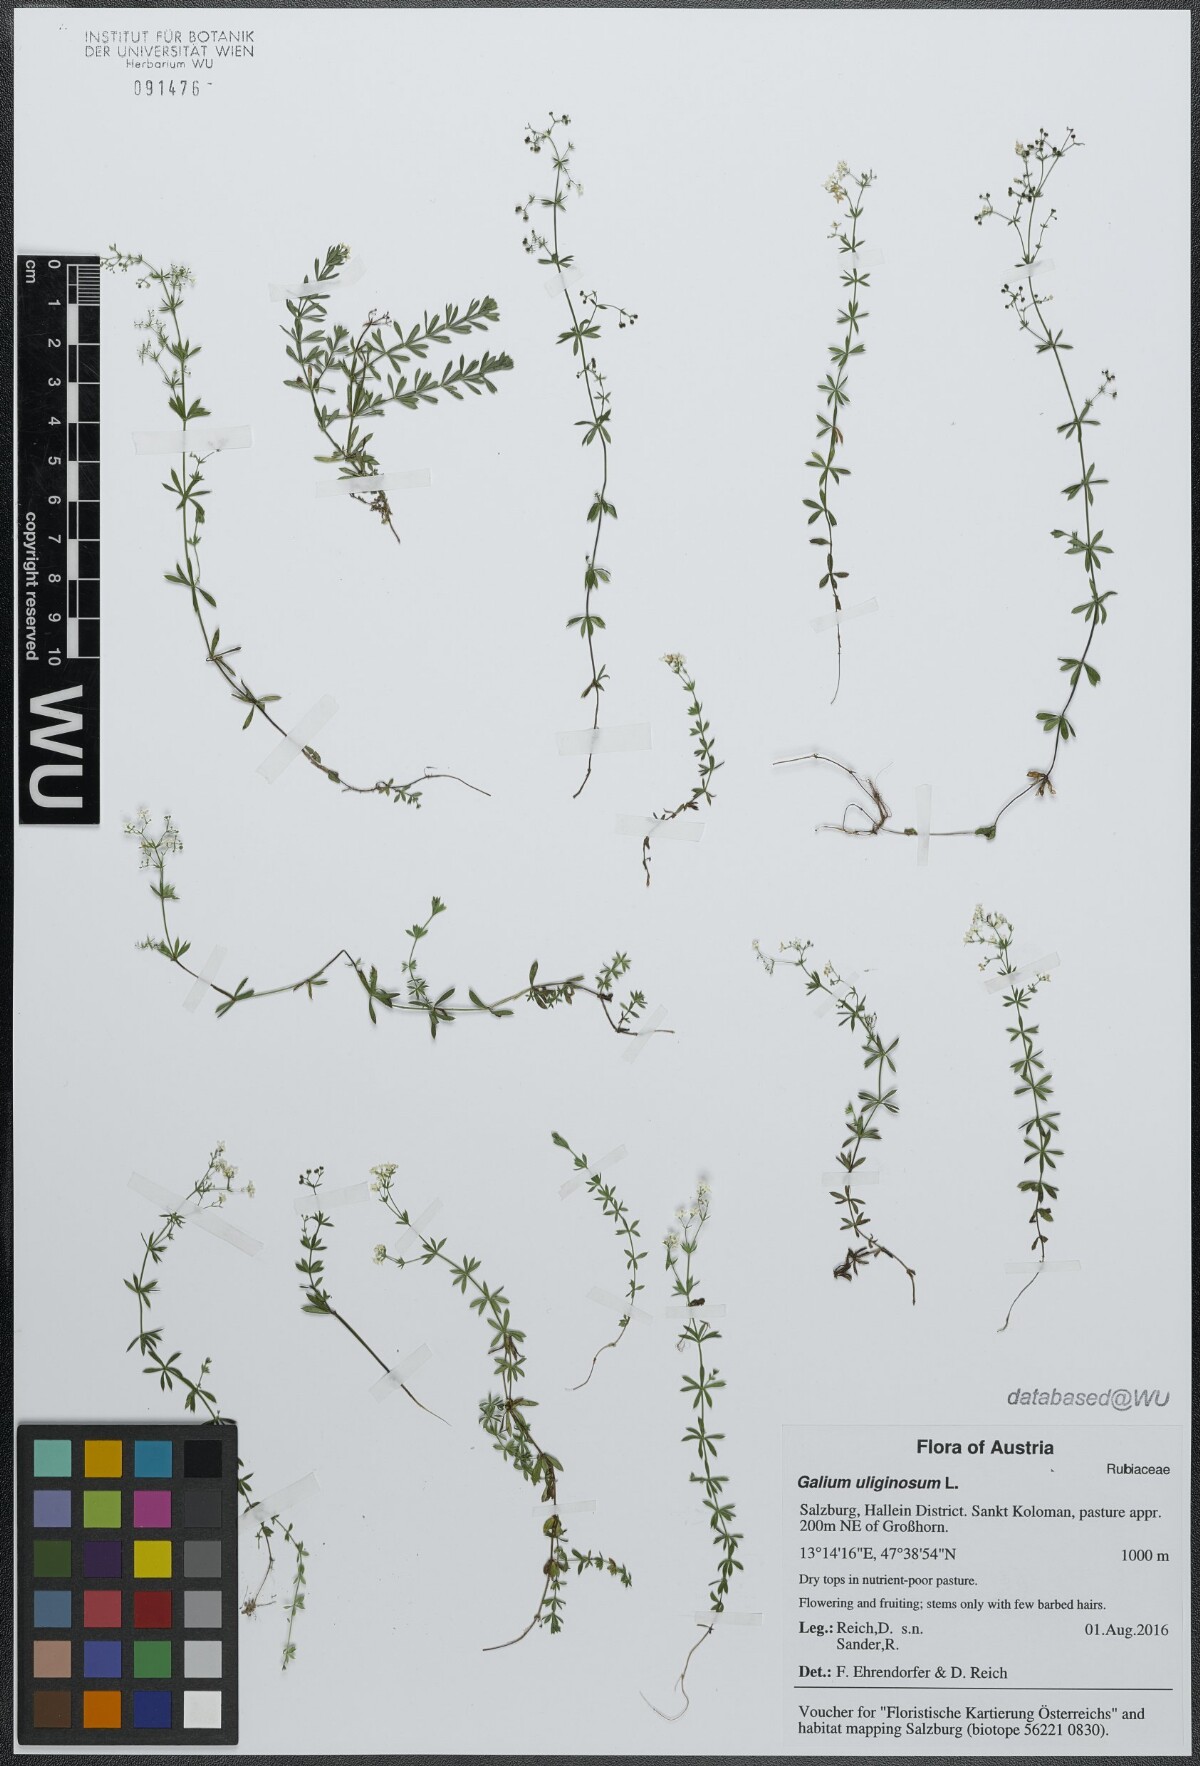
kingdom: Plantae
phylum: Tracheophyta
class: Magnoliopsida
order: Gentianales
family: Rubiaceae
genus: Galium
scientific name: Galium uliginosum
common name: Fen bedstraw
